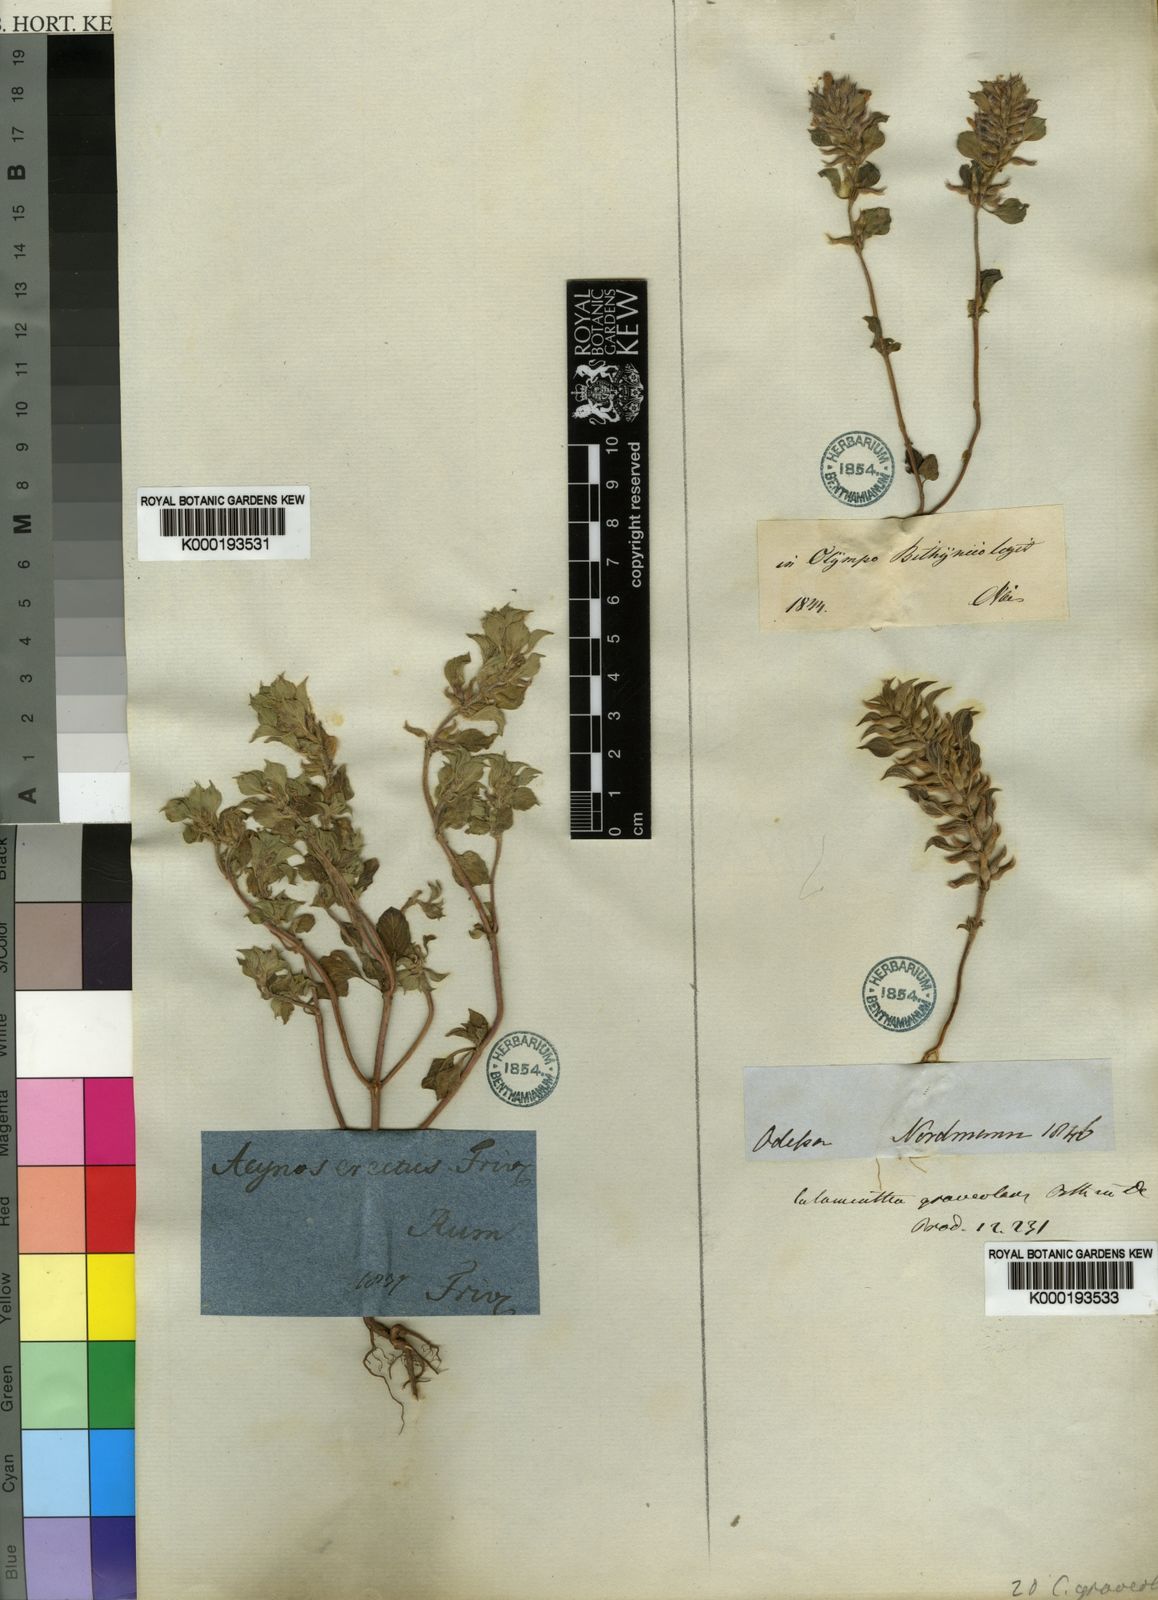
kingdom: Plantae
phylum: Tracheophyta
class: Magnoliopsida
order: Lamiales
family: Lamiaceae
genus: Clinopodium
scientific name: Clinopodium graveolens
